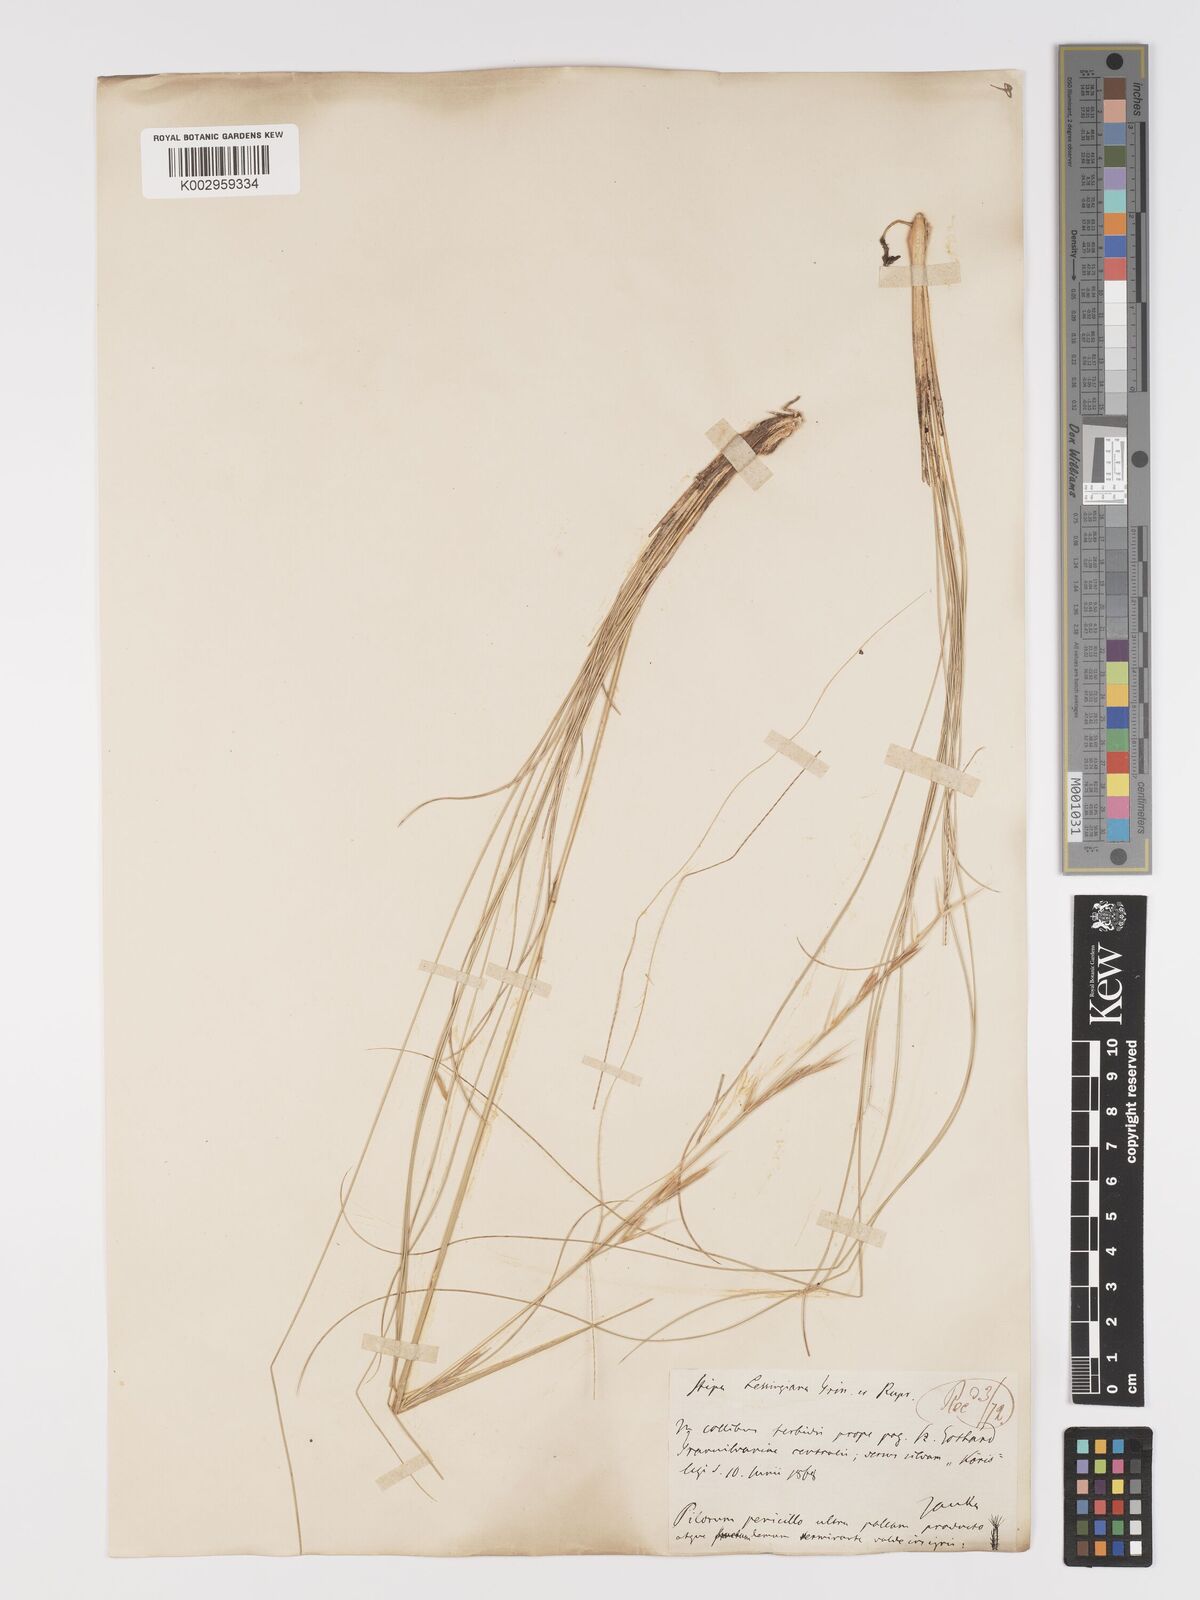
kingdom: Plantae
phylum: Tracheophyta
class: Liliopsida
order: Poales
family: Poaceae
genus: Stipa
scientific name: Stipa lessingiana
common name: Needle grass
